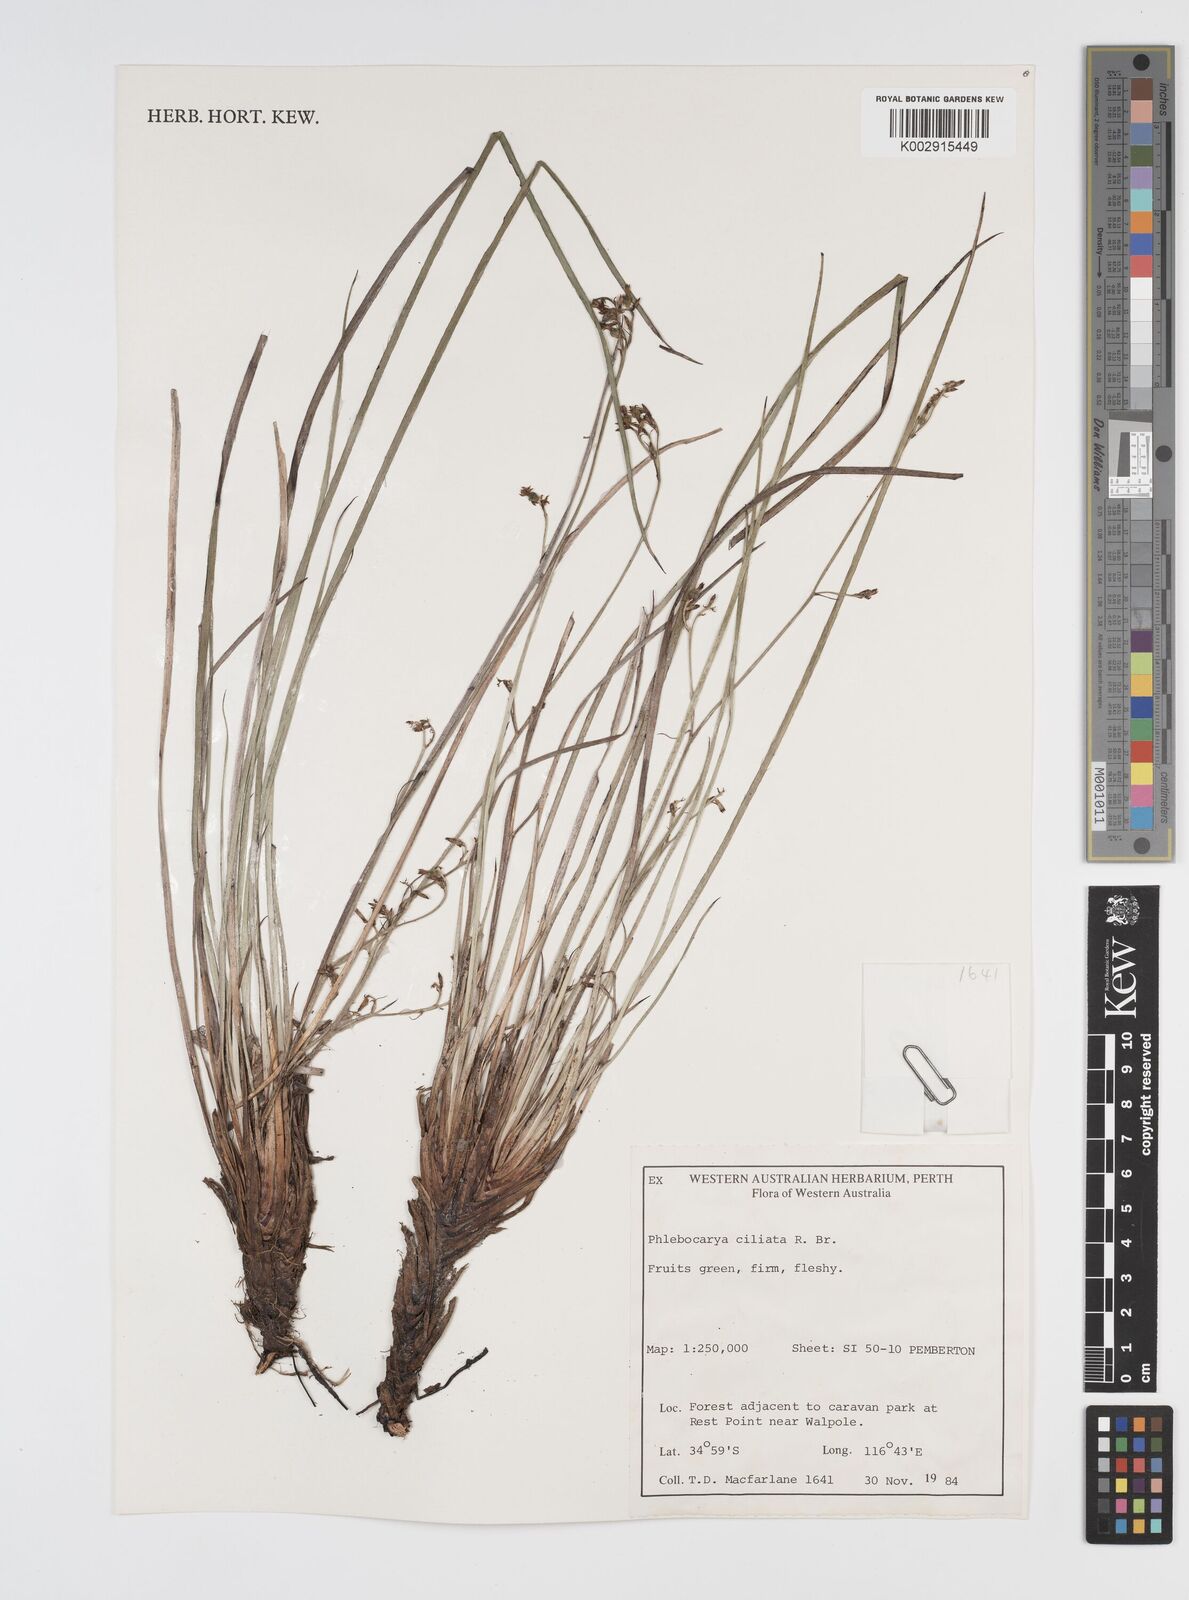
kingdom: Plantae
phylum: Tracheophyta
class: Liliopsida
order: Commelinales
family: Haemodoraceae
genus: Phlebocarya
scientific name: Phlebocarya ciliata
